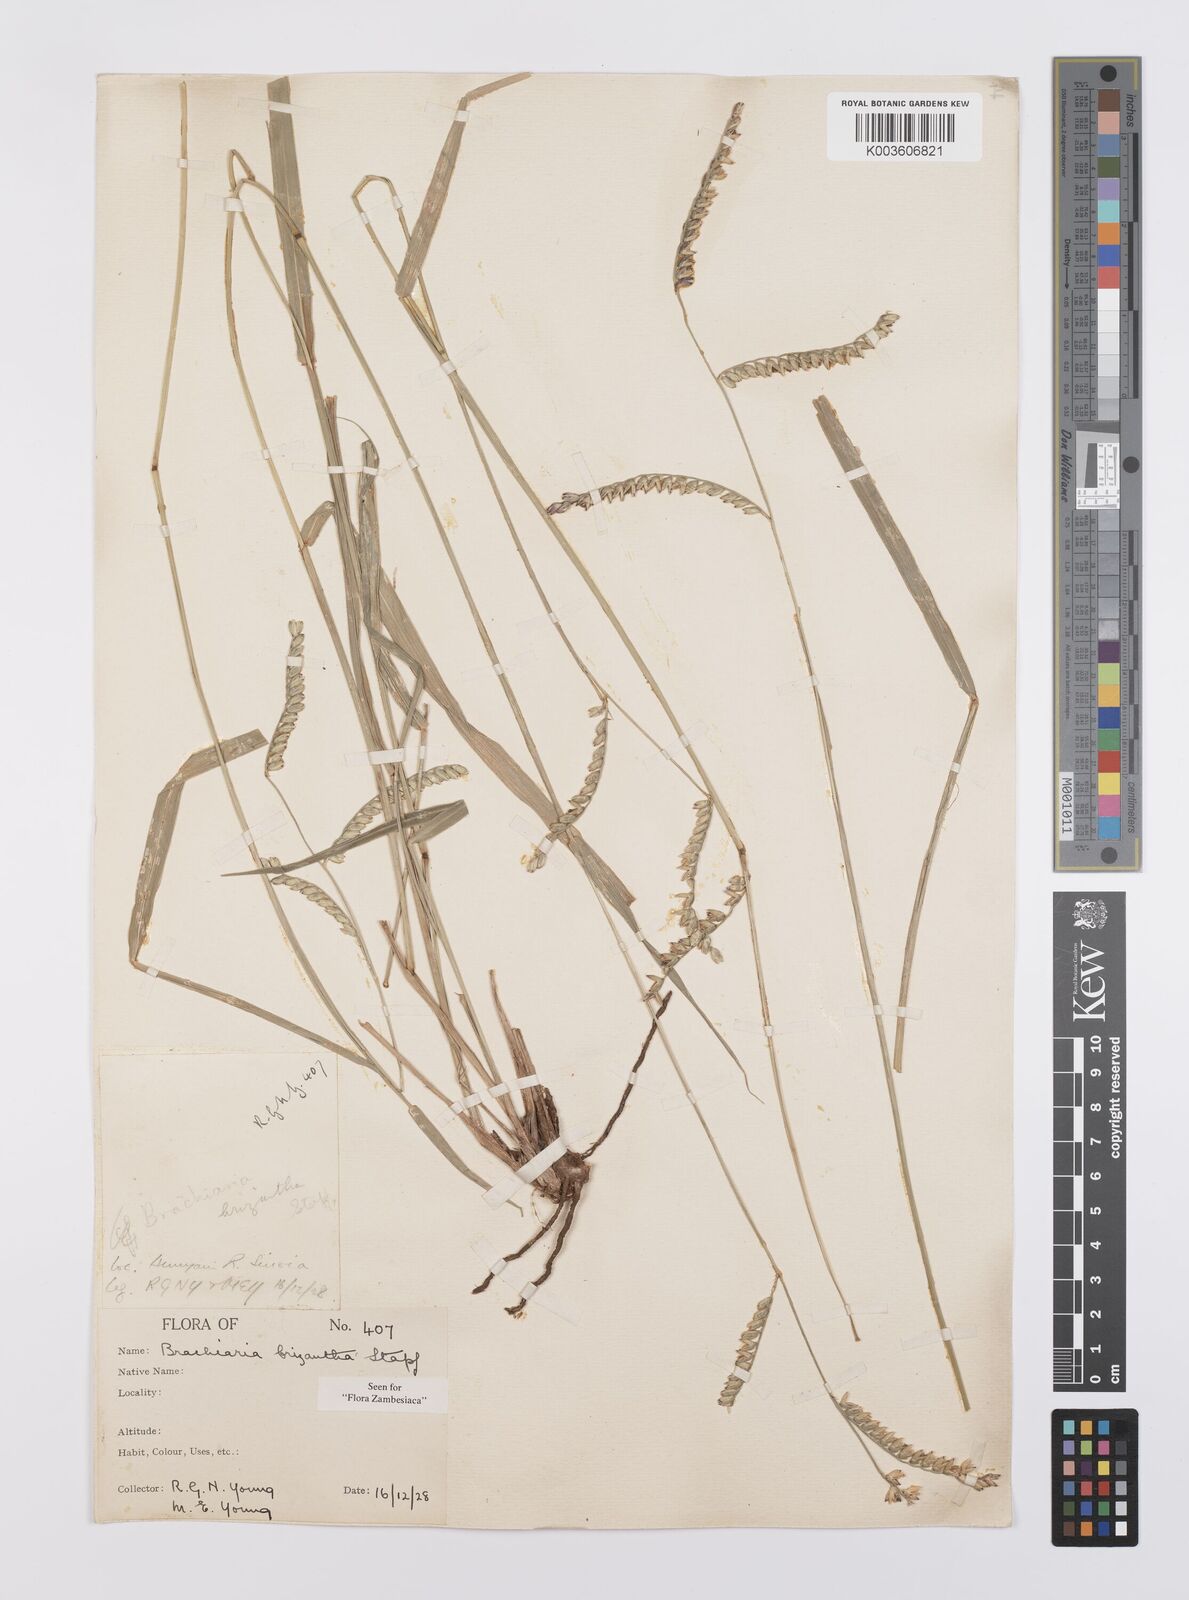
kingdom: Plantae
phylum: Tracheophyta
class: Liliopsida
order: Poales
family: Poaceae
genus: Urochloa
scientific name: Urochloa brizantha
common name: Palisade signalgrass
